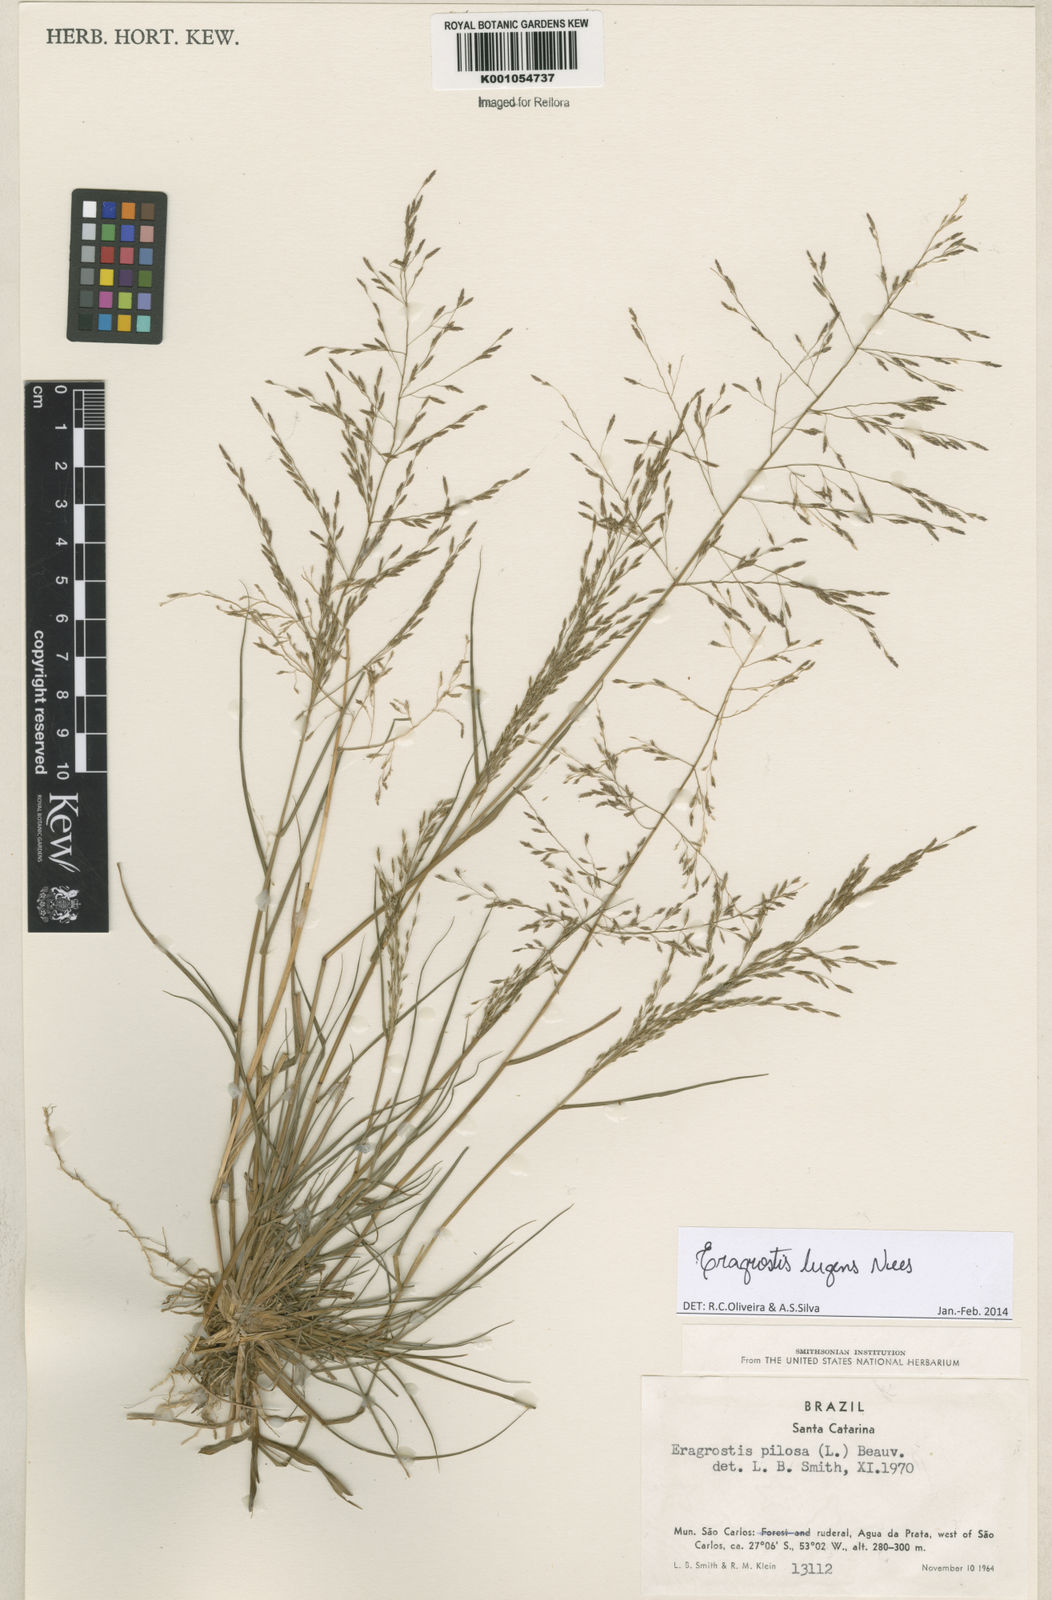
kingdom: Plantae
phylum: Tracheophyta
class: Liliopsida
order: Poales
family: Poaceae
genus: Eragrostis
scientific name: Eragrostis lugens
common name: Mourning love grass
